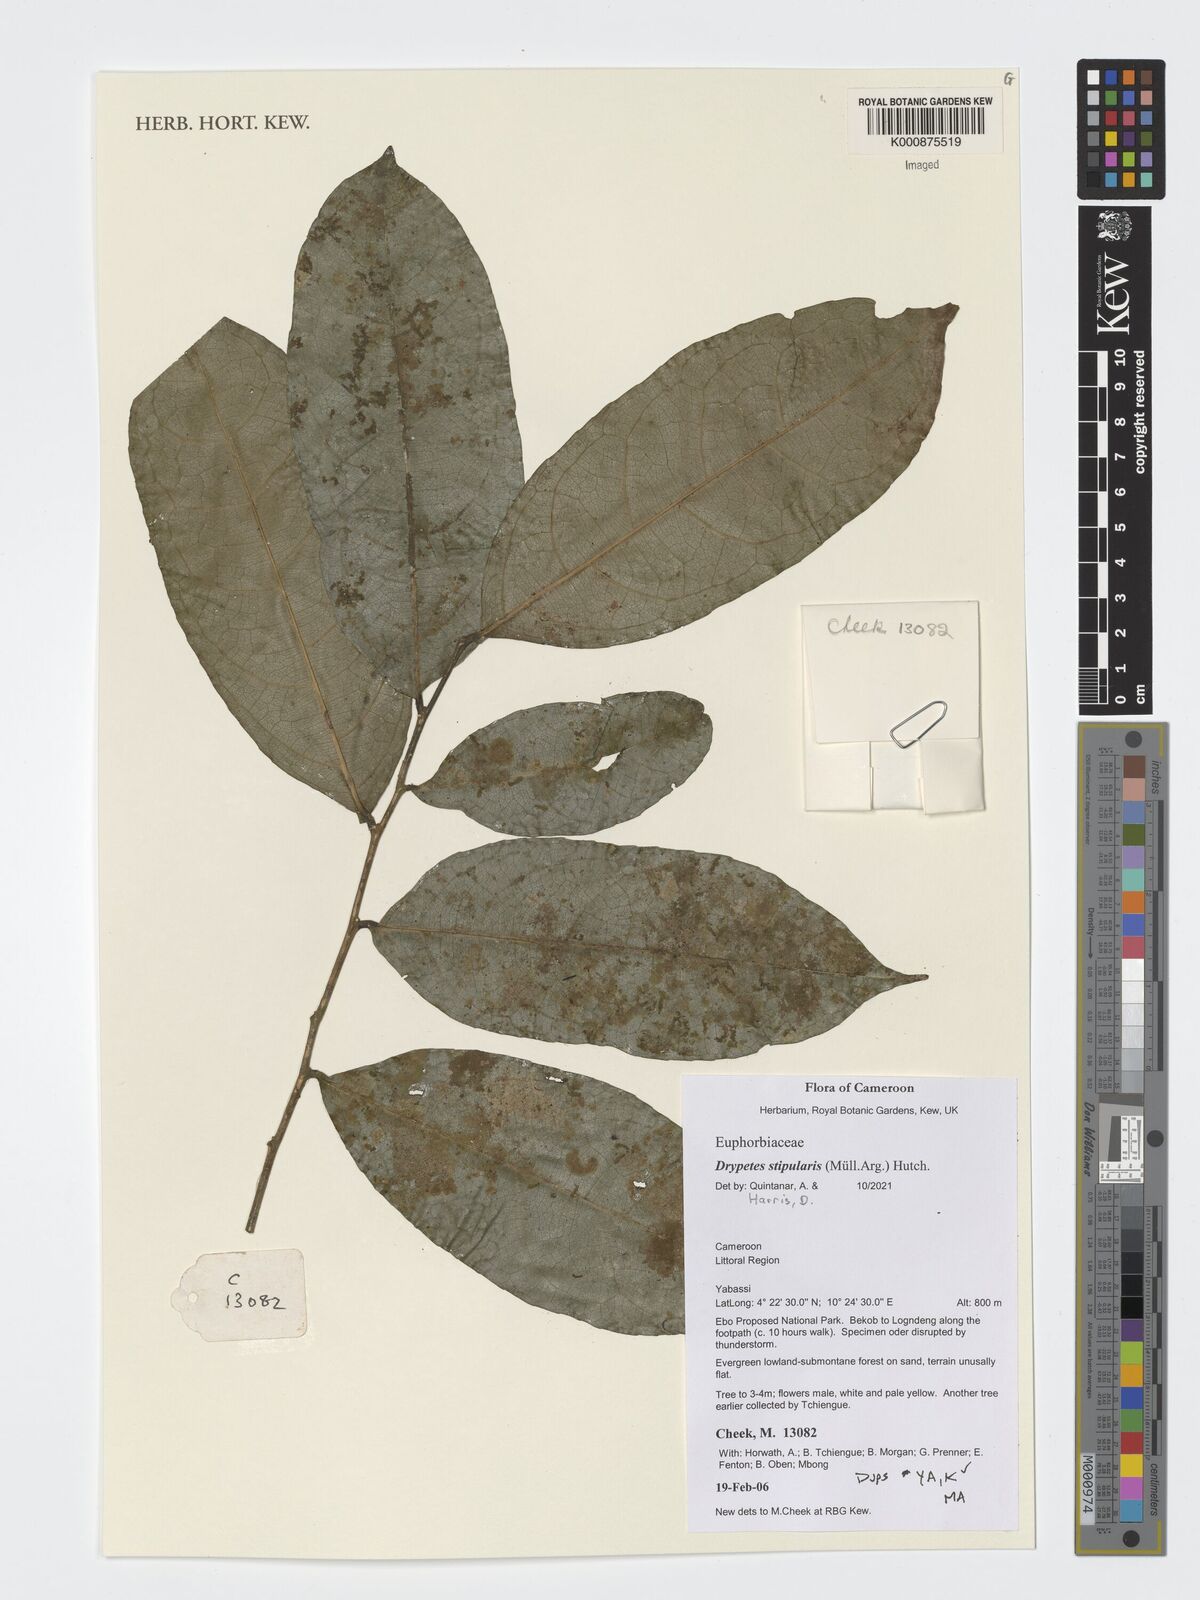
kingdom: Plantae
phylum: Tracheophyta
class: Magnoliopsida
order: Malpighiales
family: Putranjivaceae
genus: Drypetes
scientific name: Drypetes stipularis
